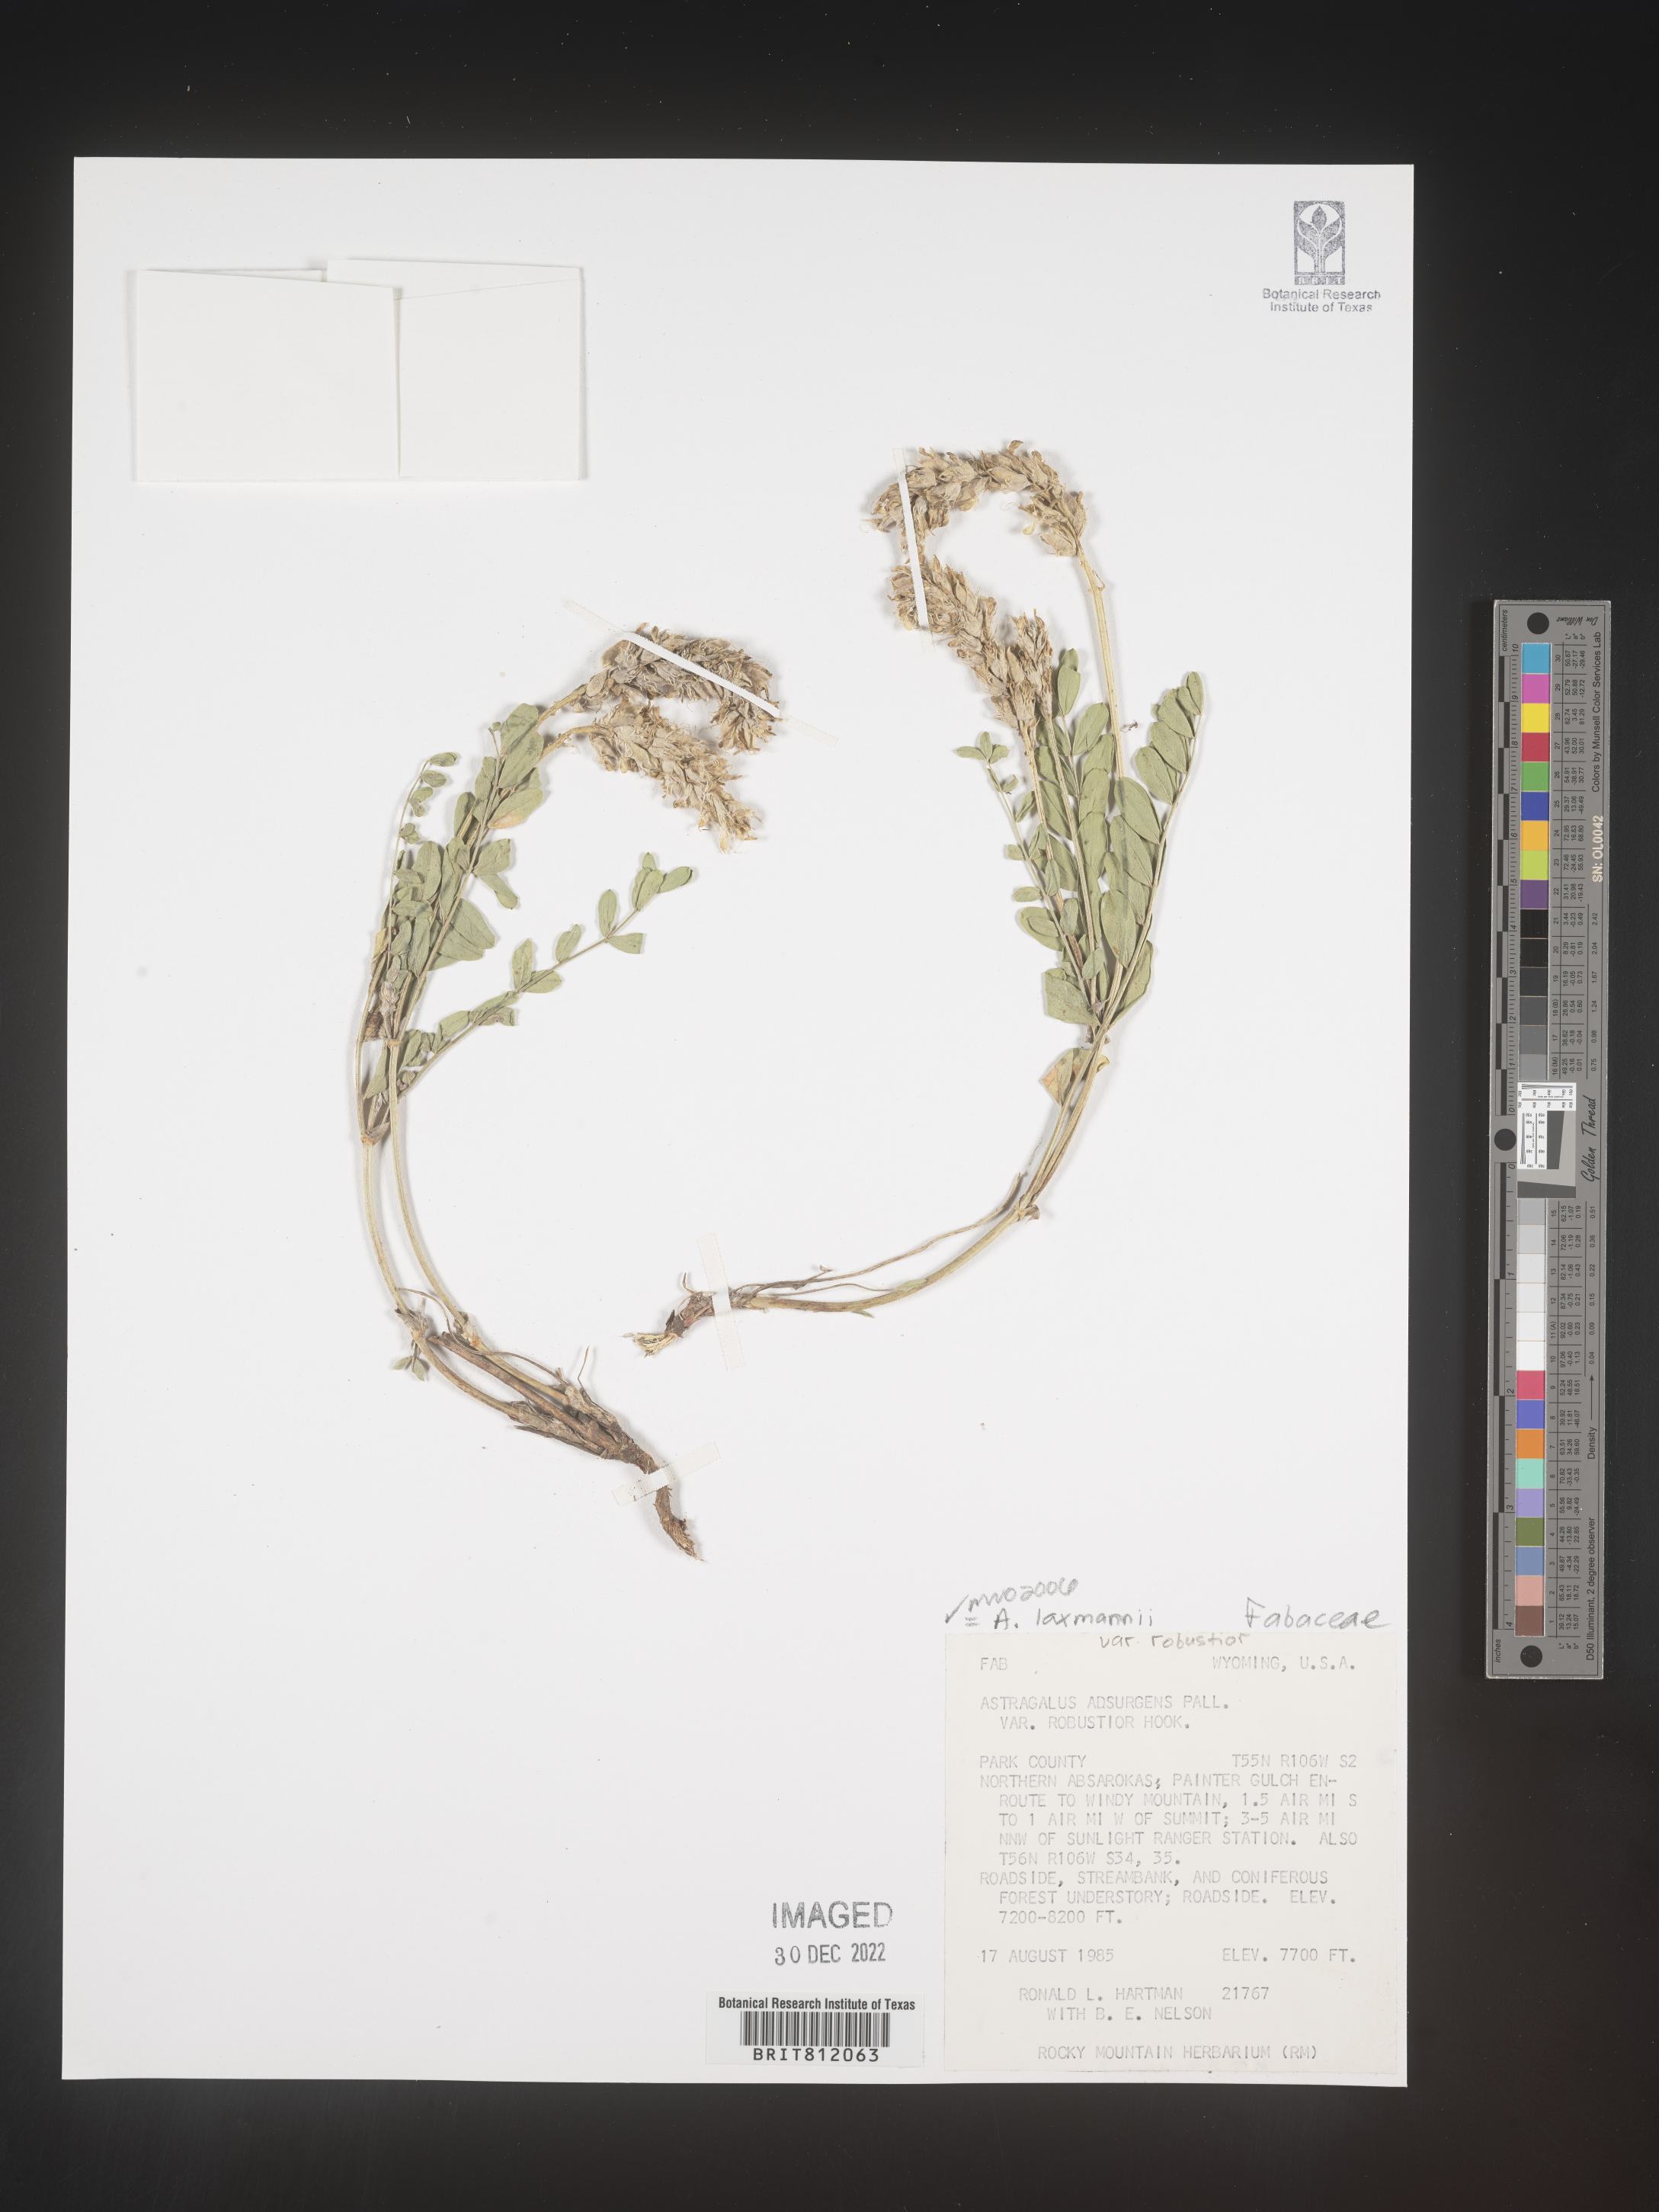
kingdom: Plantae
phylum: Tracheophyta
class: Magnoliopsida
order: Fabales
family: Fabaceae
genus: Astragalus
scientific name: Astragalus
